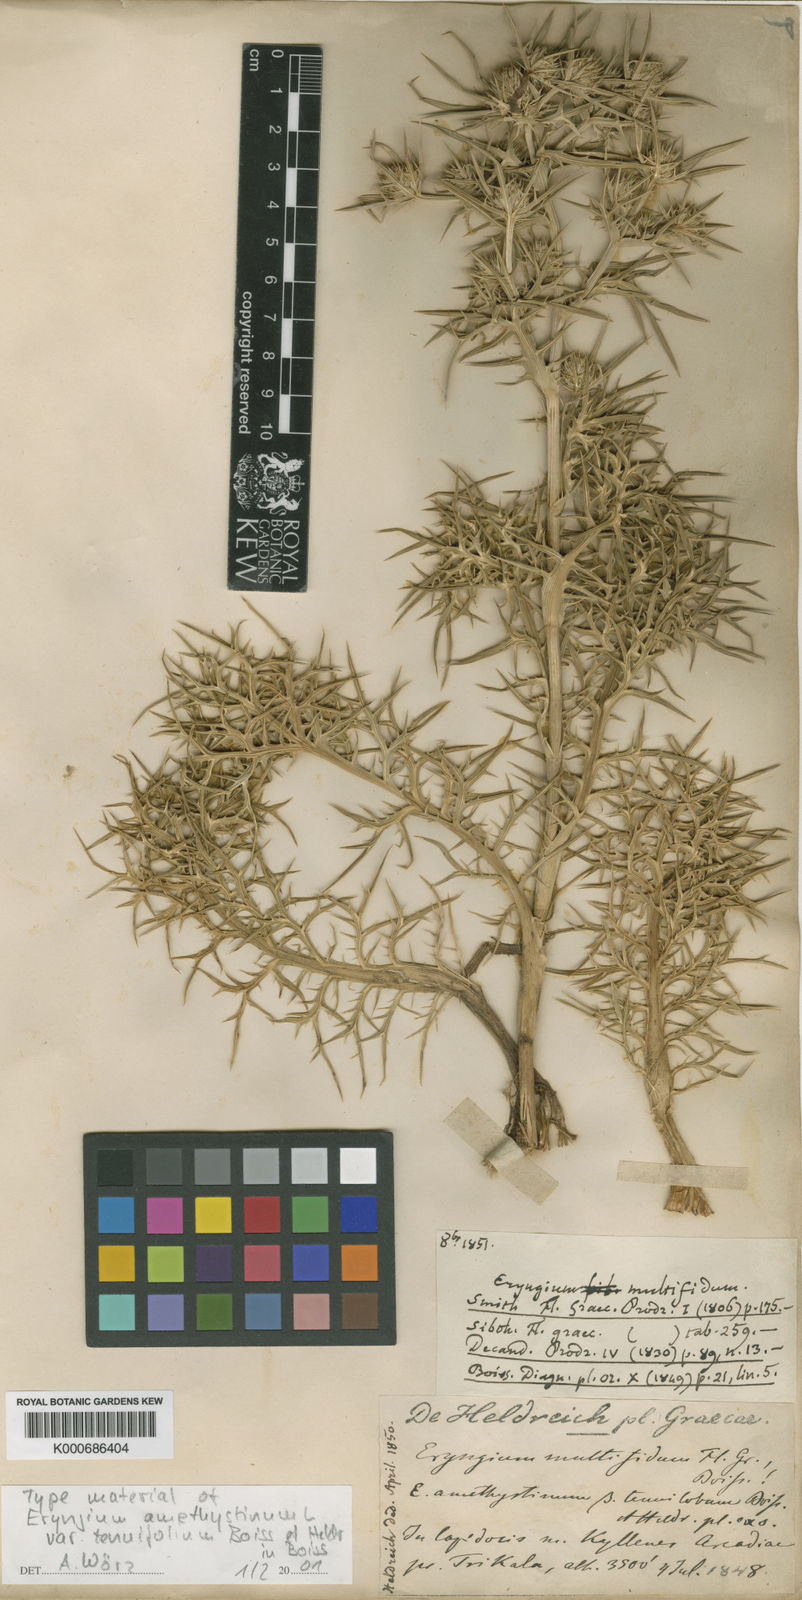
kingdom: Plantae
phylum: Tracheophyta
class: Magnoliopsida
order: Apiales
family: Apiaceae
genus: Eryngium
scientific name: Eryngium amethystinum
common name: Amethyst eryngo
